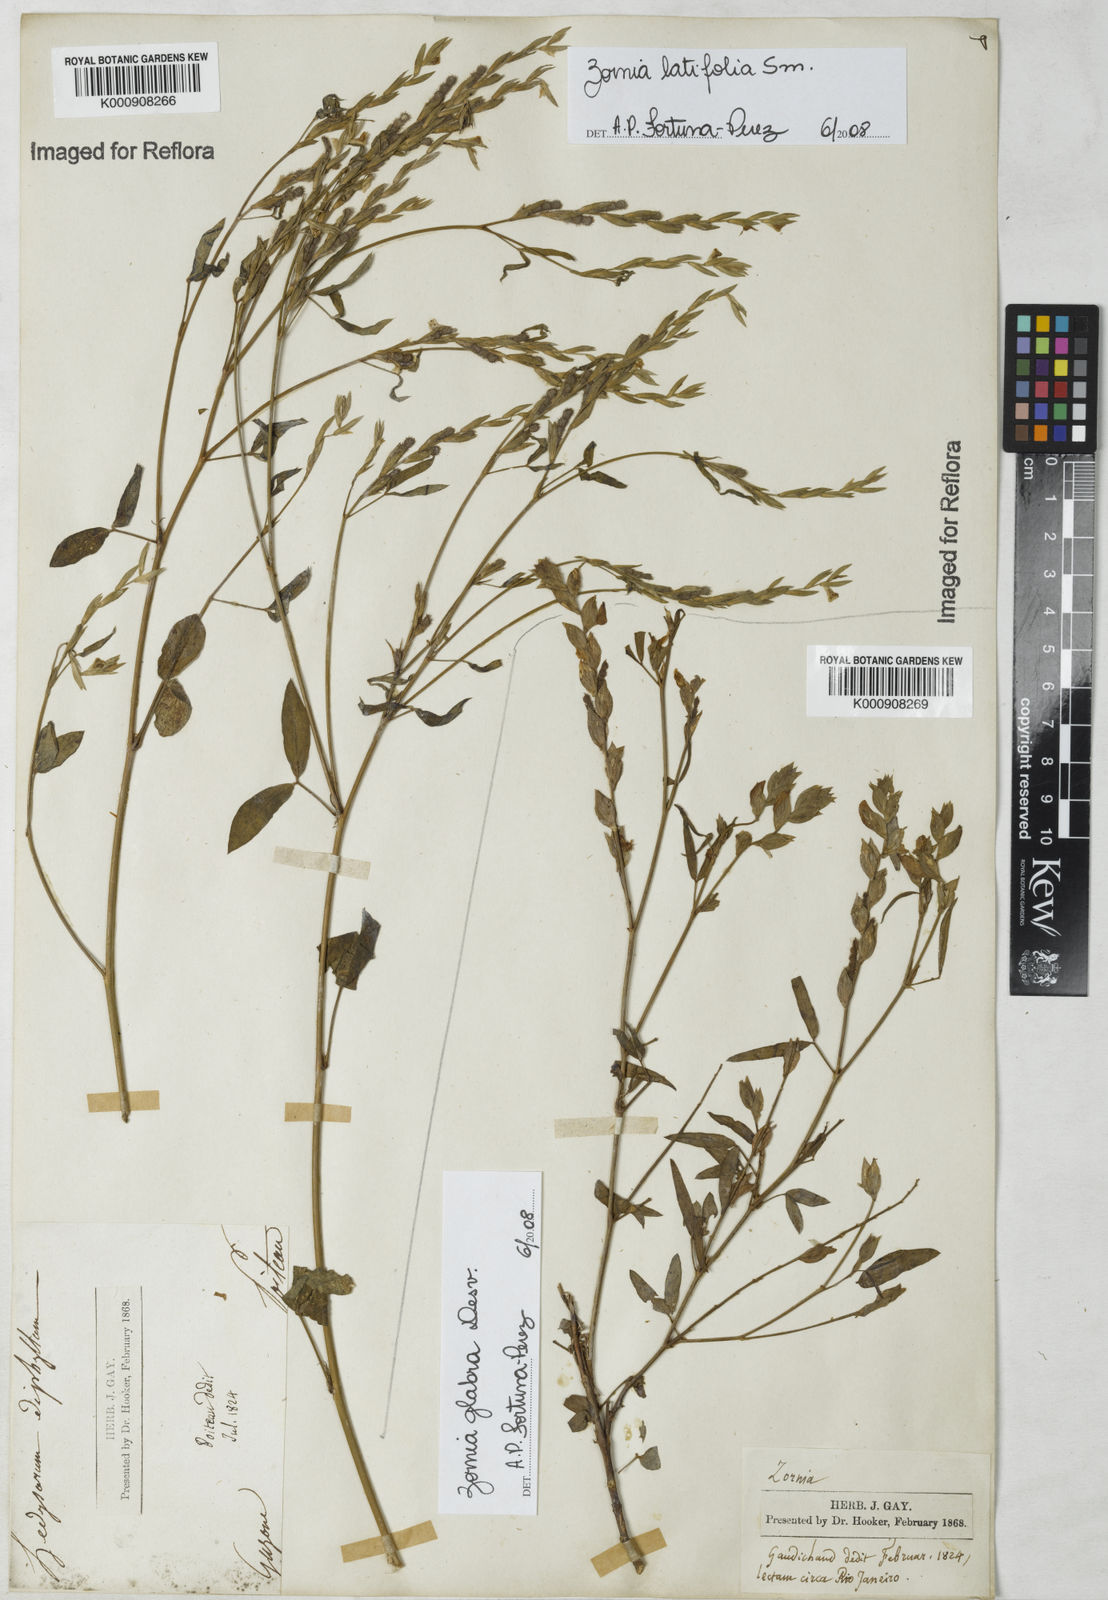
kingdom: Plantae
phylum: Tracheophyta
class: Magnoliopsida
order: Fabales
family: Fabaceae
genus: Zornia
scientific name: Zornia
